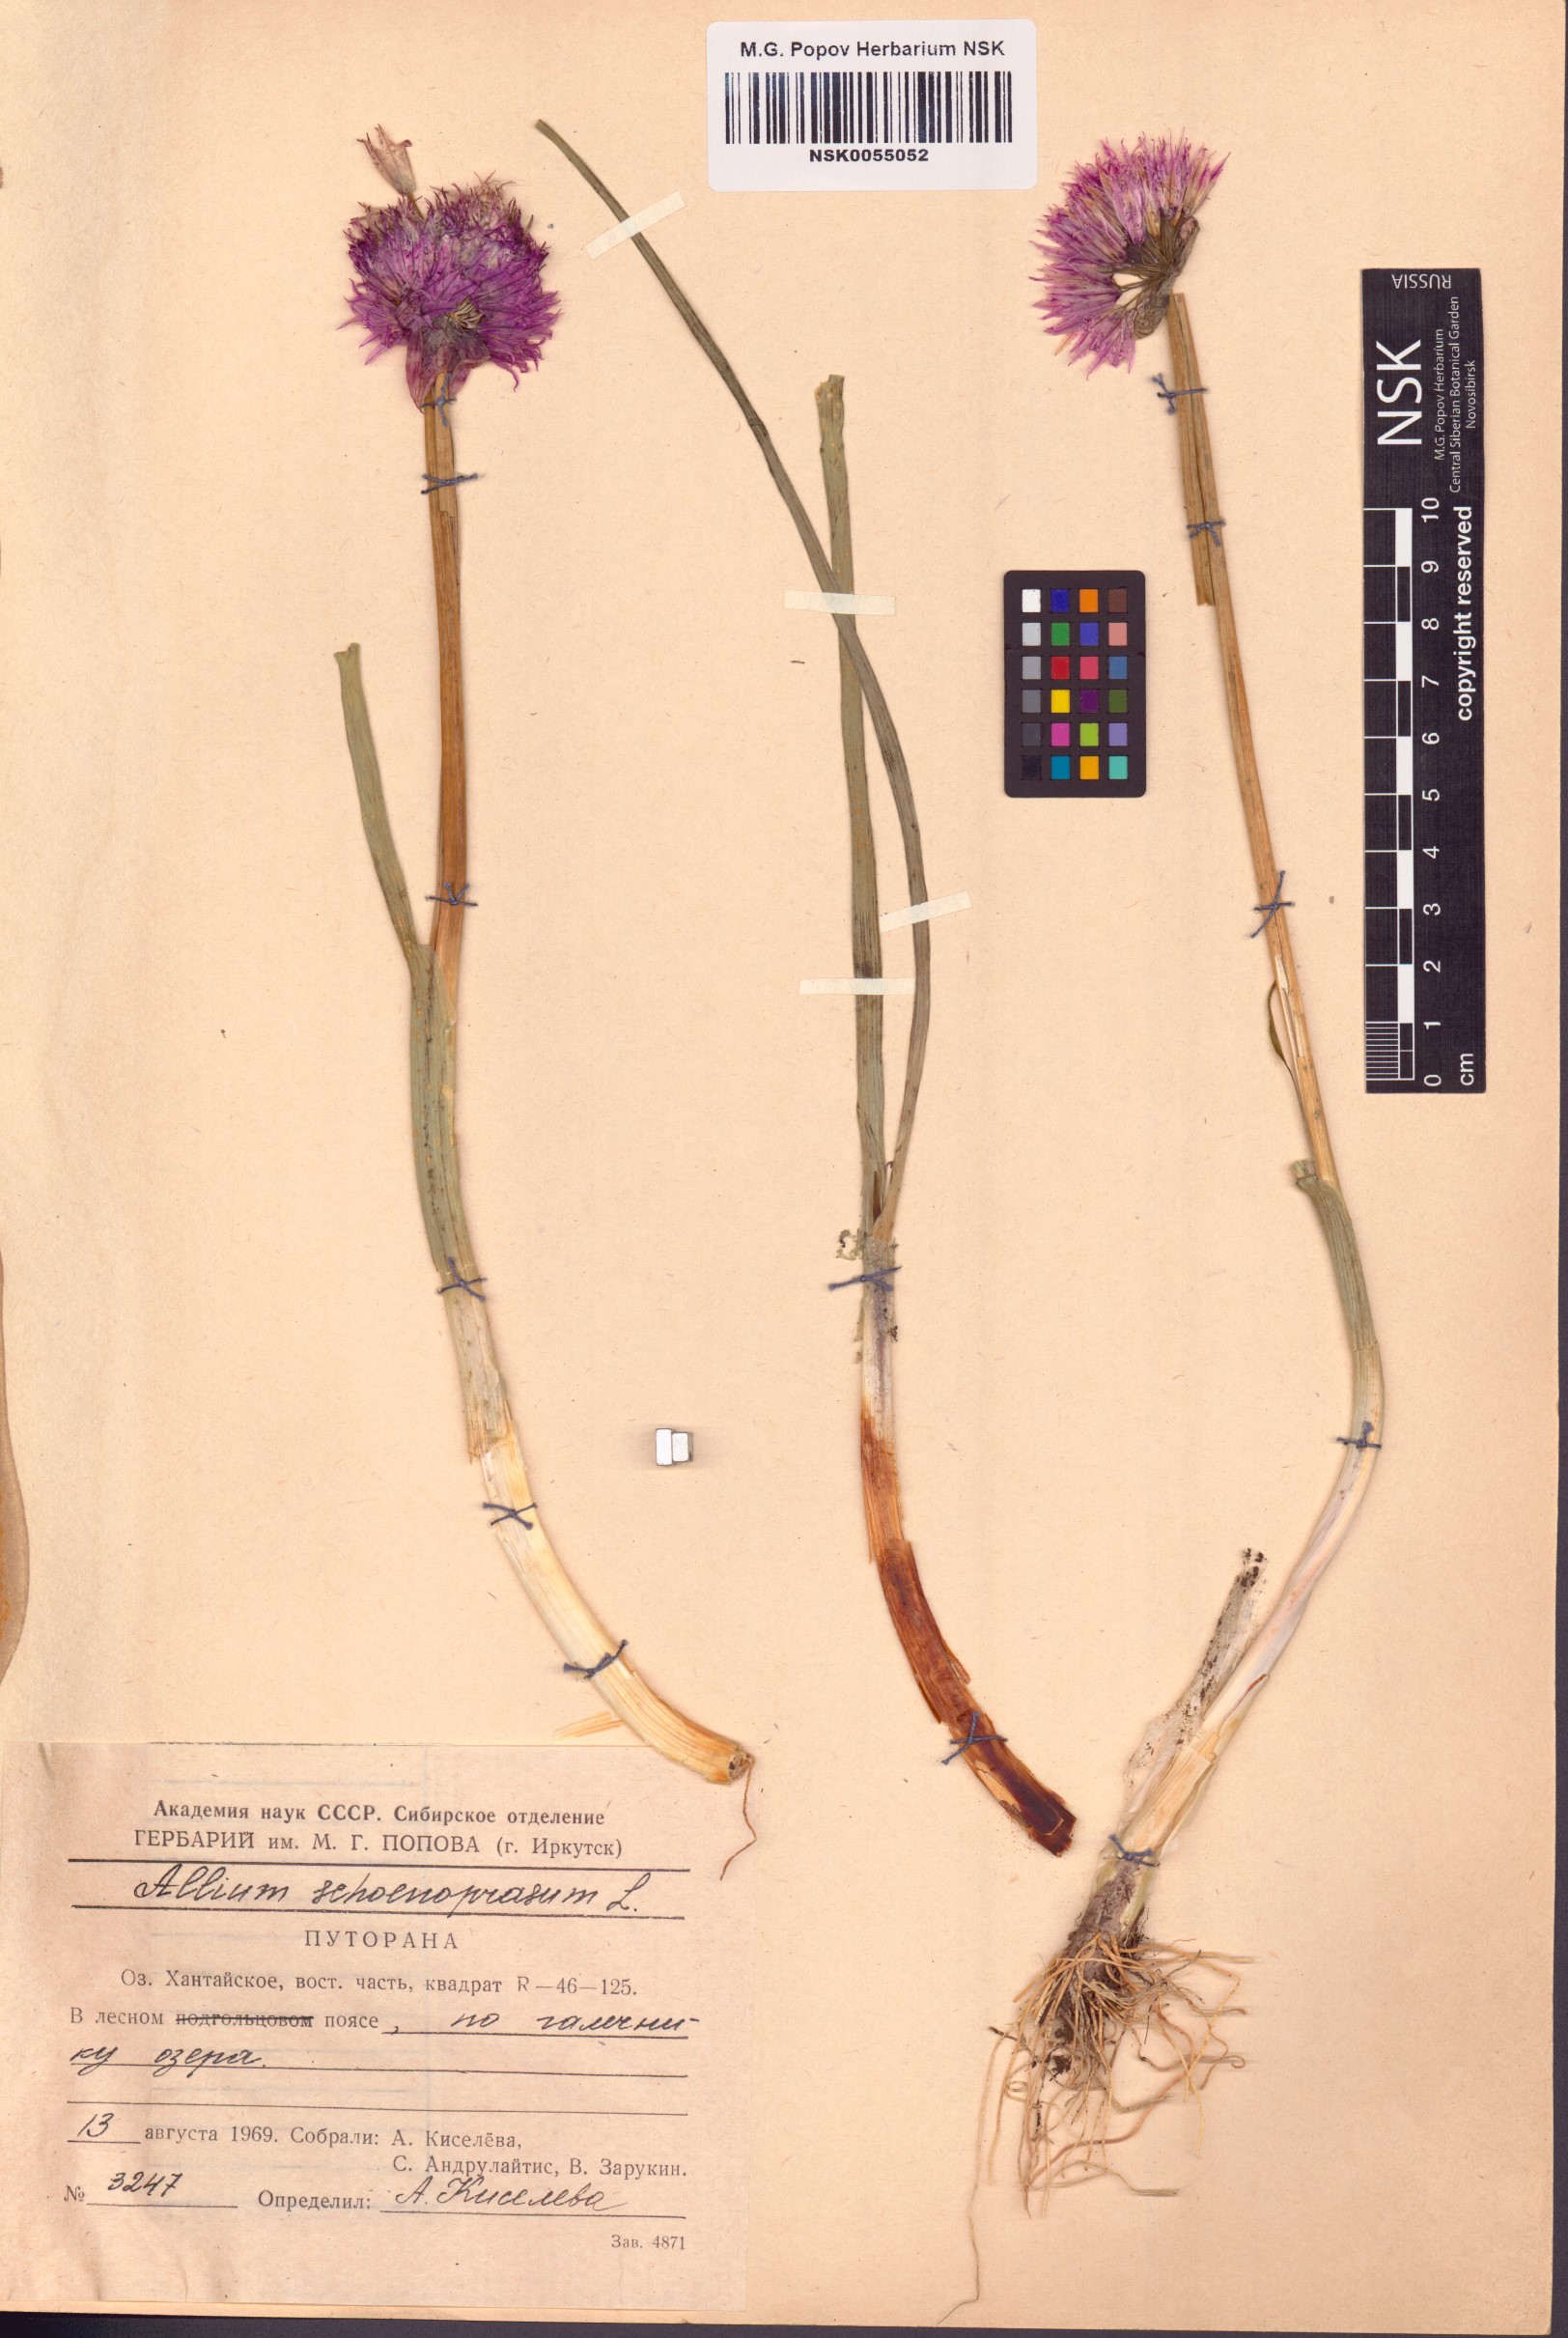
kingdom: Plantae
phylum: Tracheophyta
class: Liliopsida
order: Asparagales
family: Amaryllidaceae
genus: Allium
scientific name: Allium schoenoprasum
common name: Chives
